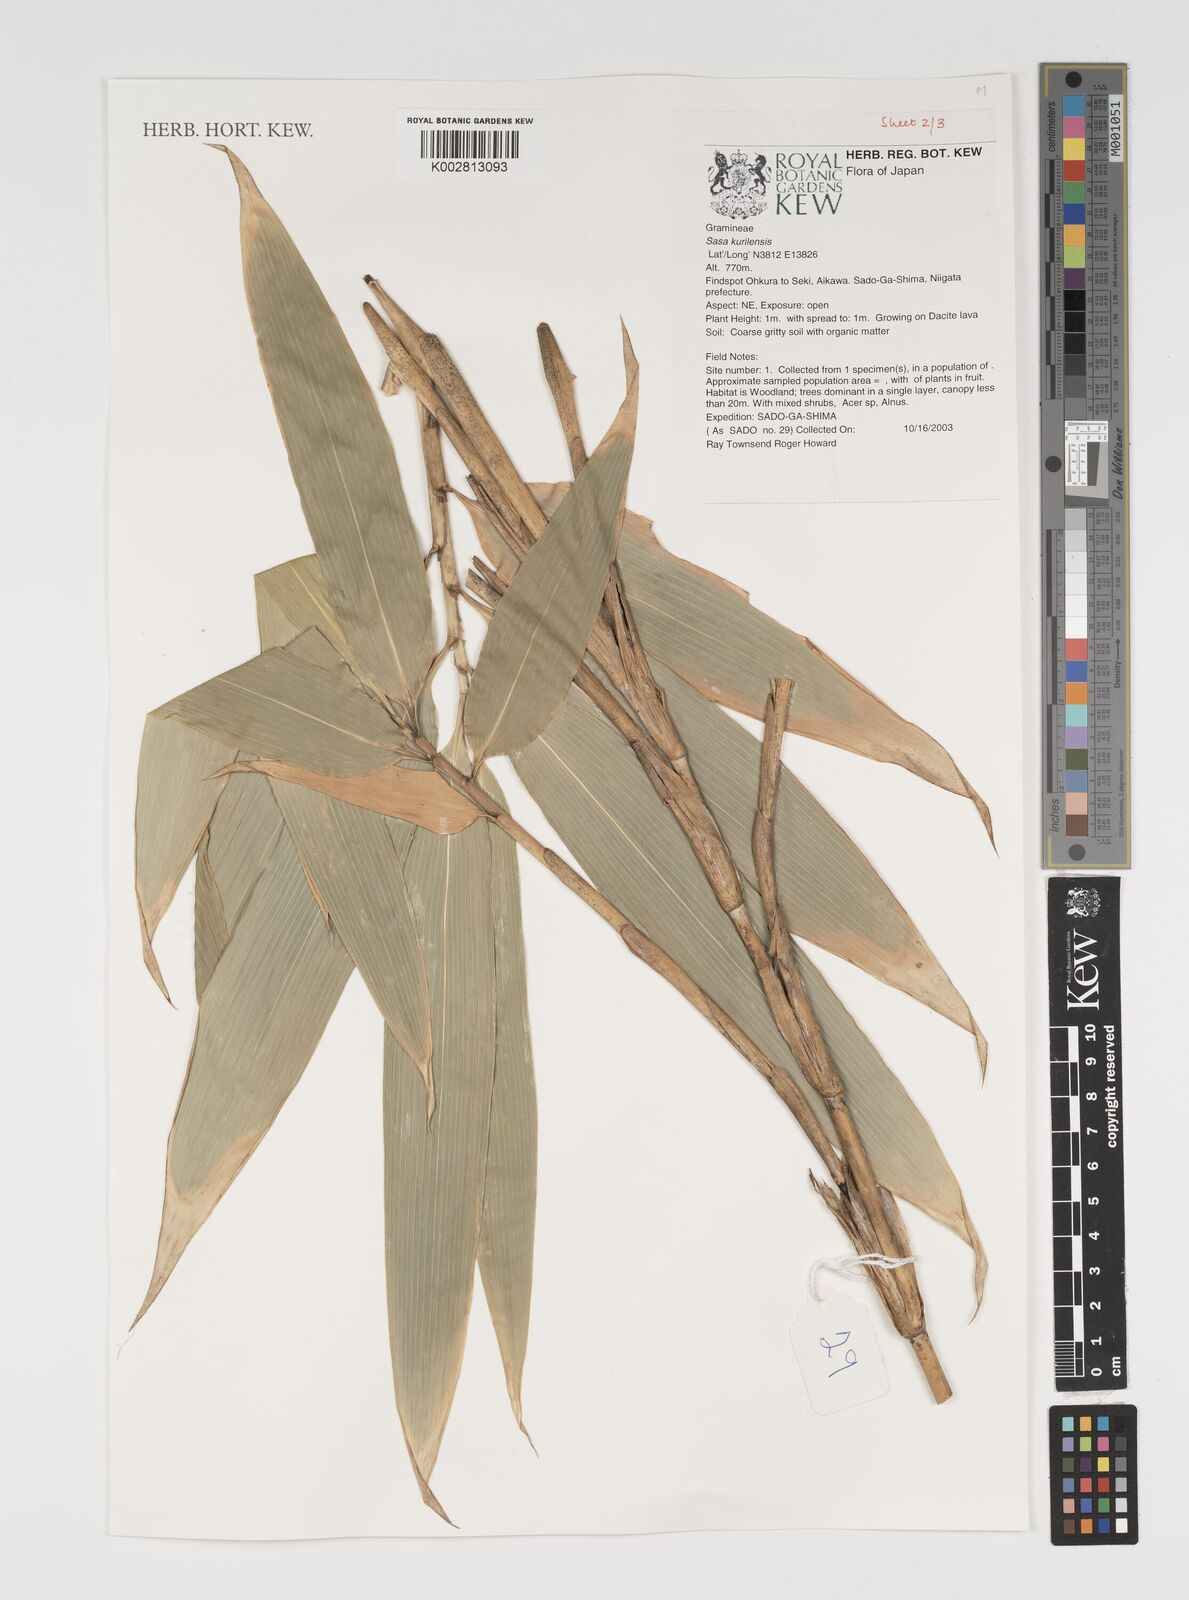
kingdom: Plantae
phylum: Tracheophyta
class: Liliopsida
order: Poales
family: Poaceae
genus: Sasa
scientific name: Sasa kurilensis
